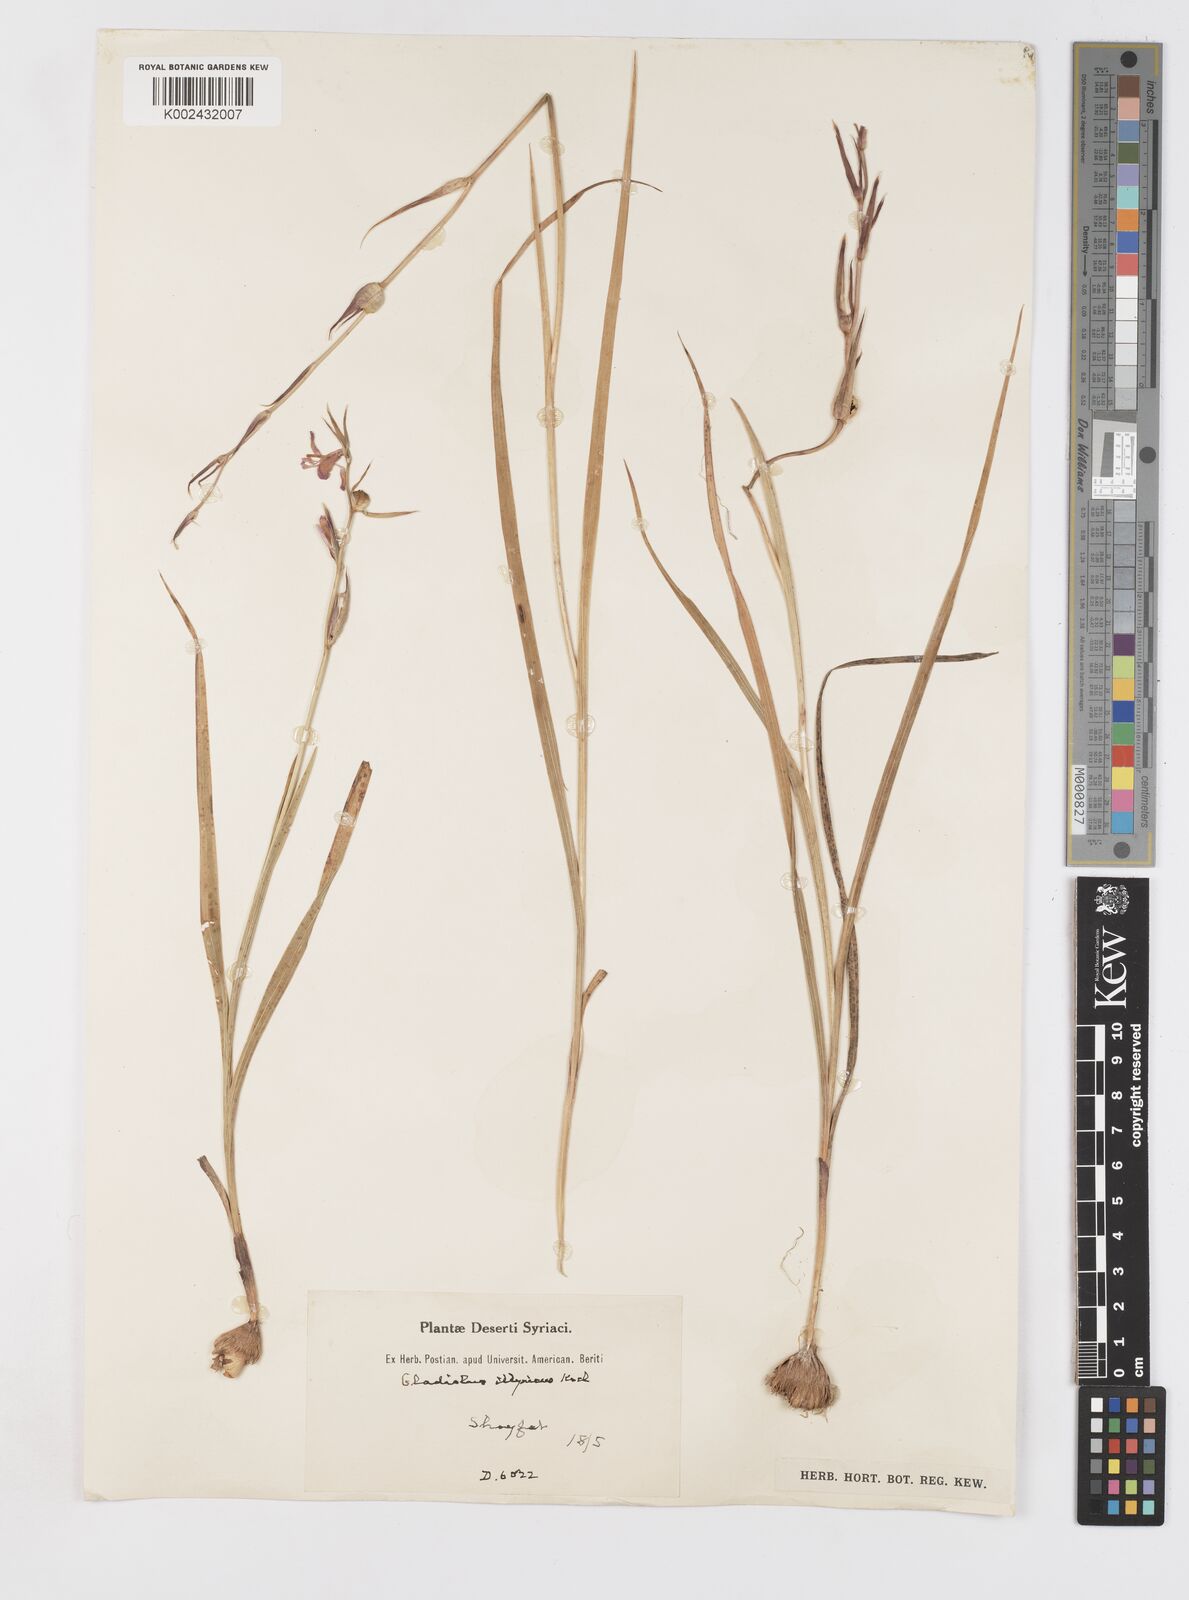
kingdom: Plantae
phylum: Tracheophyta
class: Liliopsida
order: Asparagales
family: Iridaceae
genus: Gladiolus
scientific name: Gladiolus illyricus
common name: Wild gladiolus
